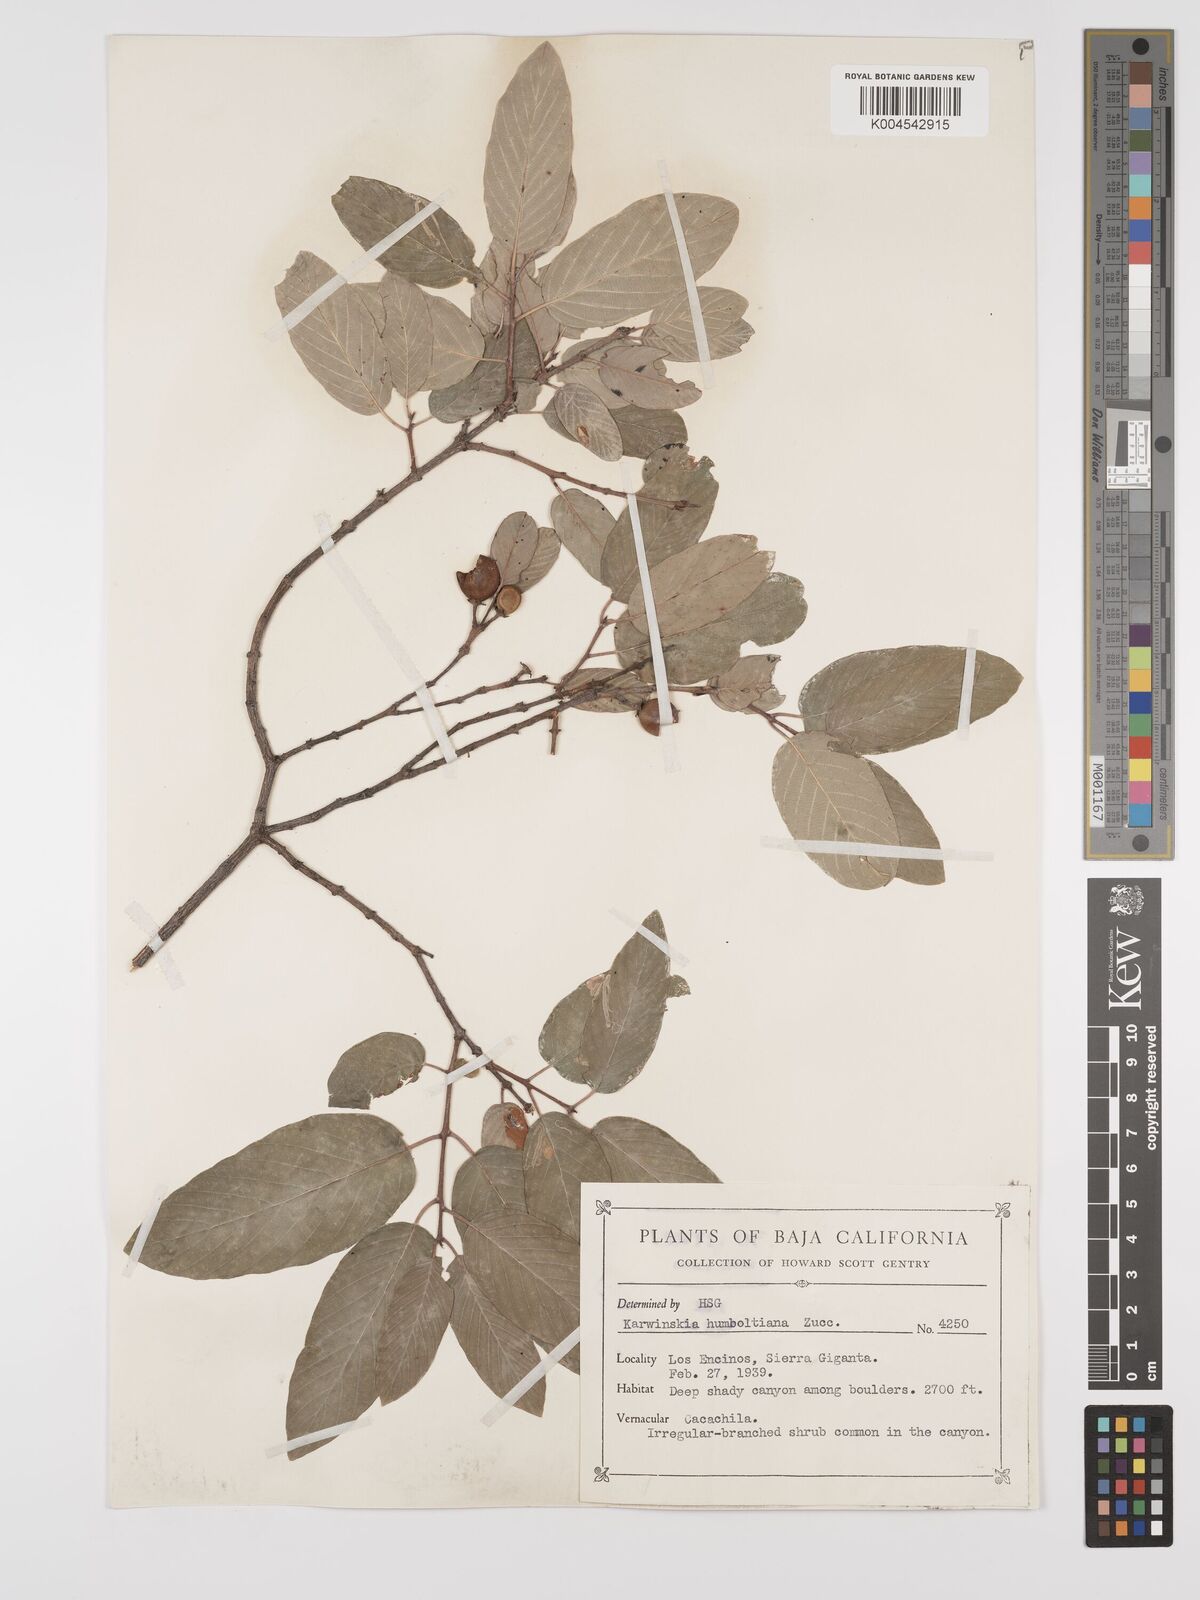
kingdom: Plantae
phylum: Tracheophyta
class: Magnoliopsida
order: Rosales
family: Rhamnaceae
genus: Karwinskia
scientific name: Karwinskia humboldtiana
